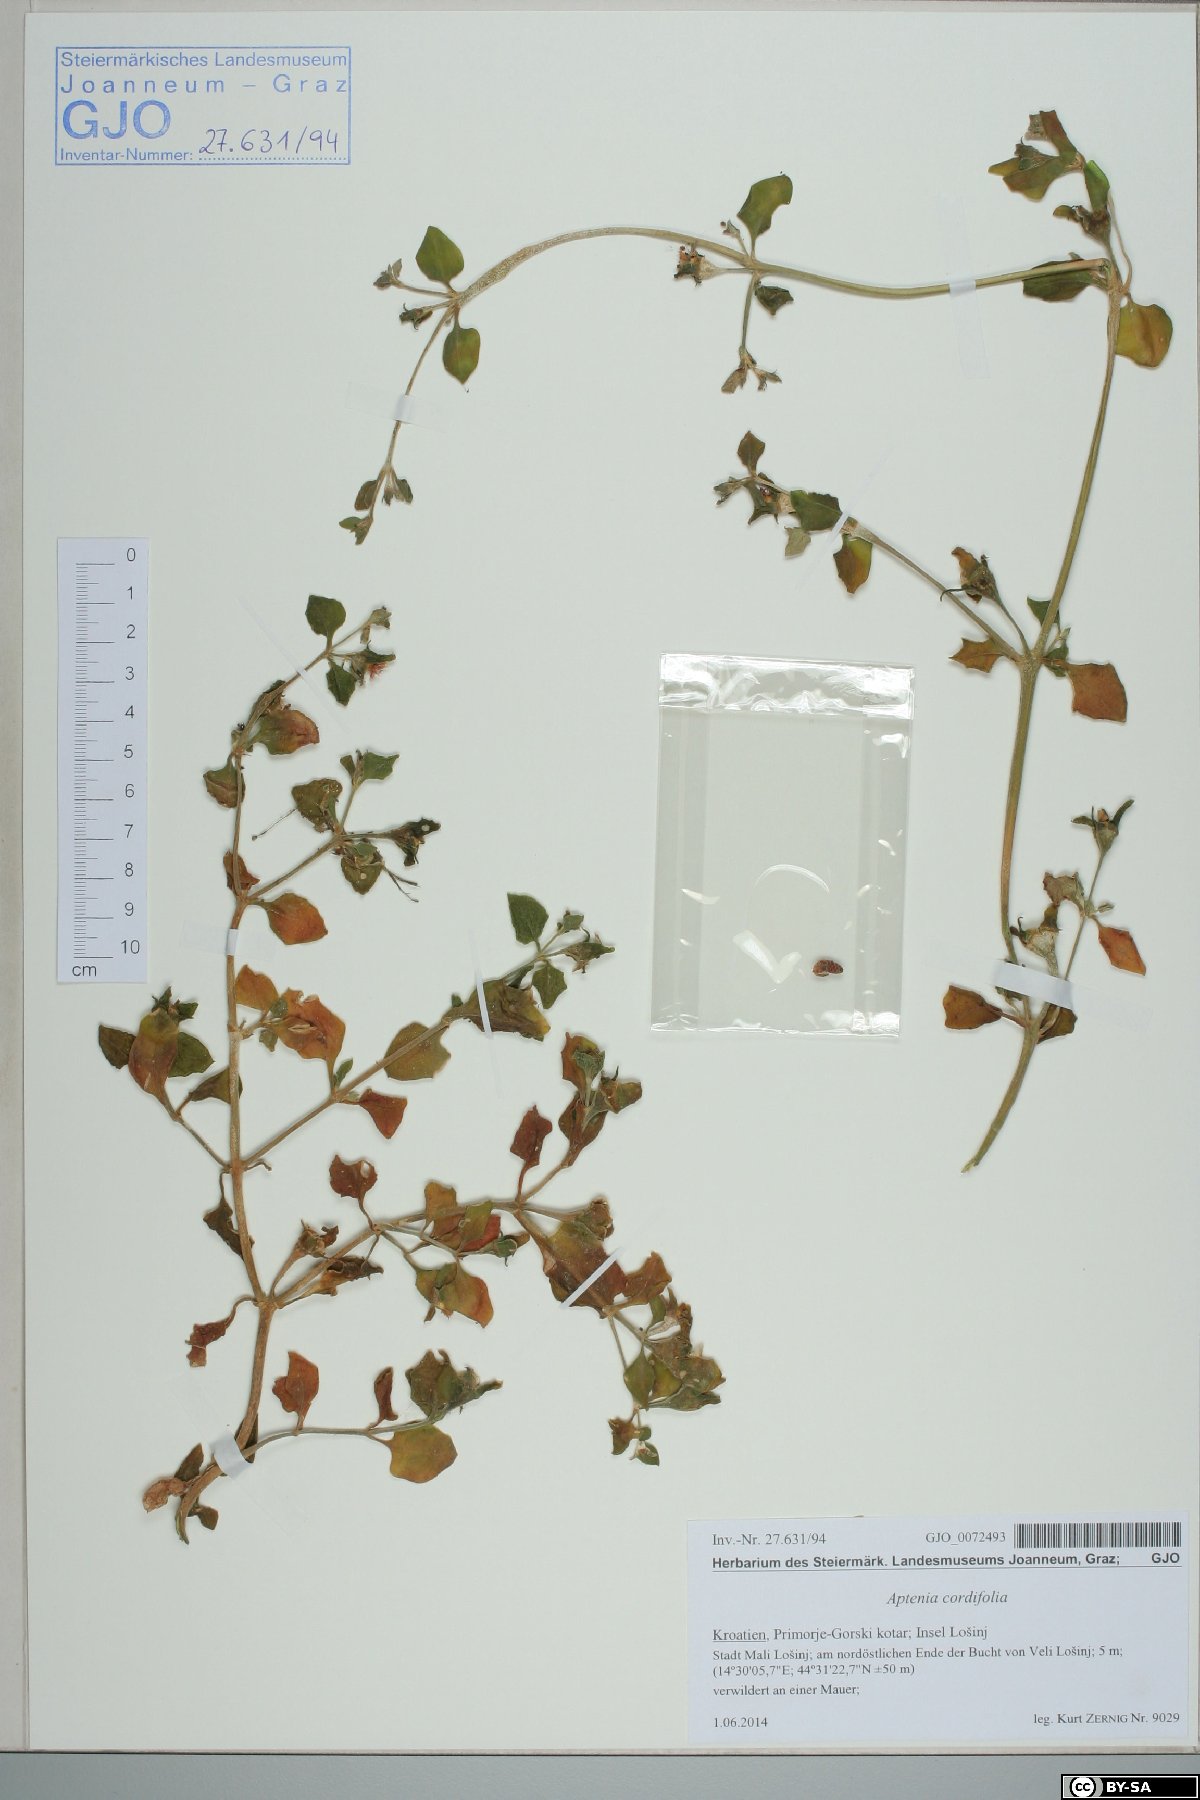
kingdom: Plantae
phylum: Tracheophyta
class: Magnoliopsida
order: Caryophyllales
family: Aizoaceae
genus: Mesembryanthemum
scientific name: Mesembryanthemum cordifolium
